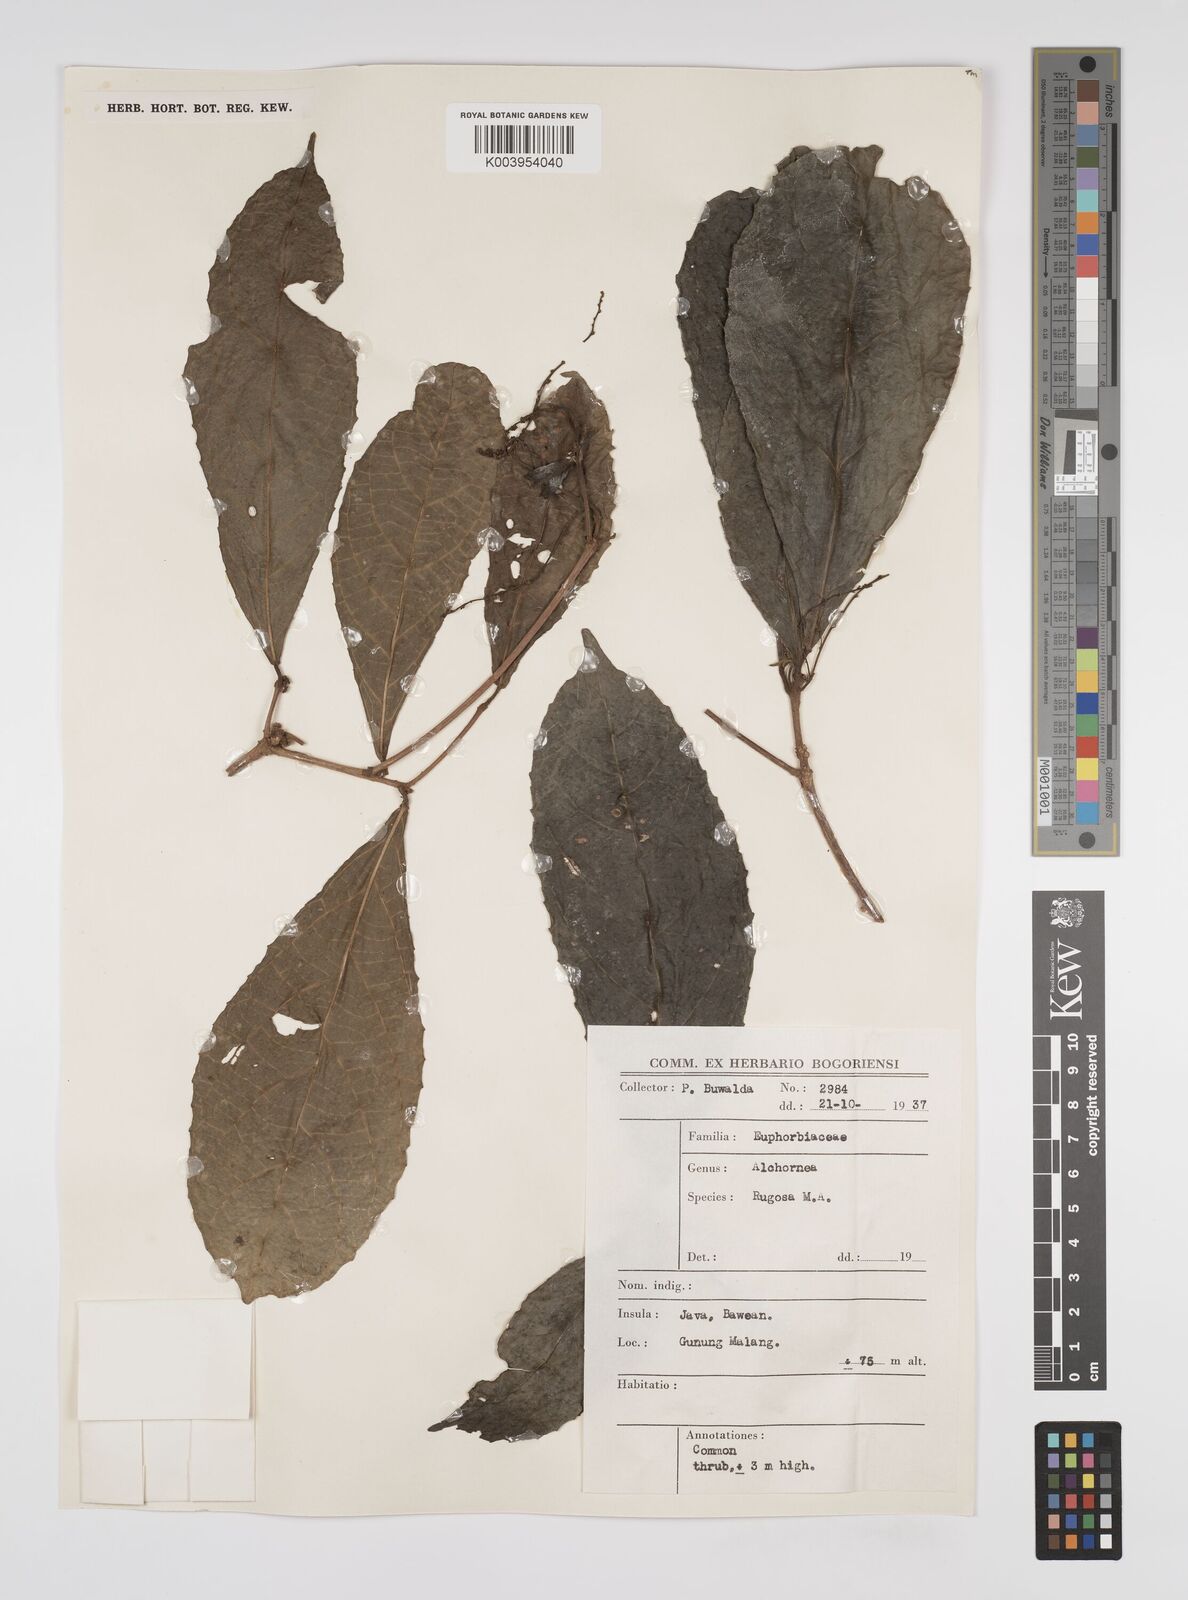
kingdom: Plantae
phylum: Tracheophyta
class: Magnoliopsida
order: Malpighiales
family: Euphorbiaceae
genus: Alchornea
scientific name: Alchornea rugosa
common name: Alchorntree
